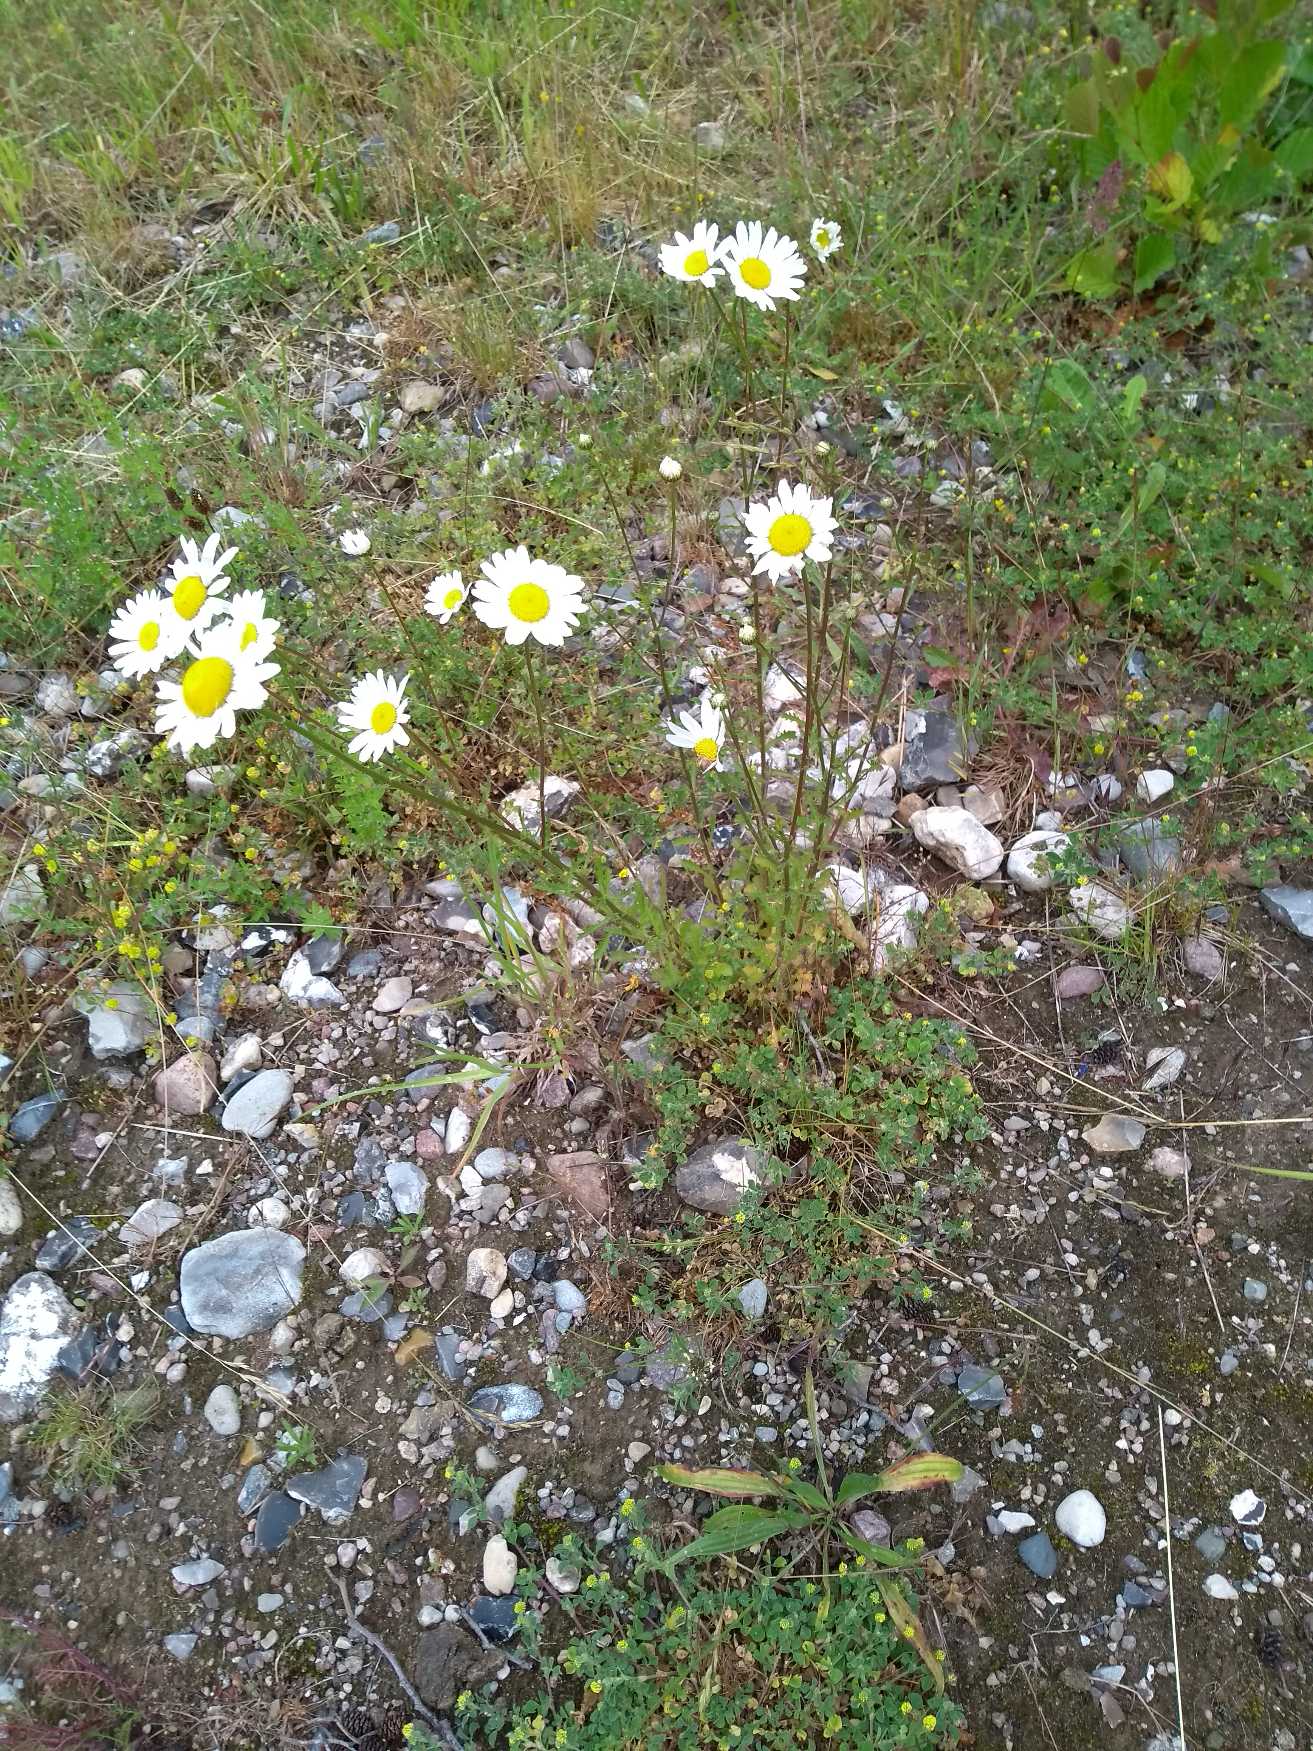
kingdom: Plantae
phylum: Tracheophyta
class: Magnoliopsida
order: Asterales
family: Asteraceae
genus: Leucanthemum
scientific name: Leucanthemum vulgare
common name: Hvid okseøje
